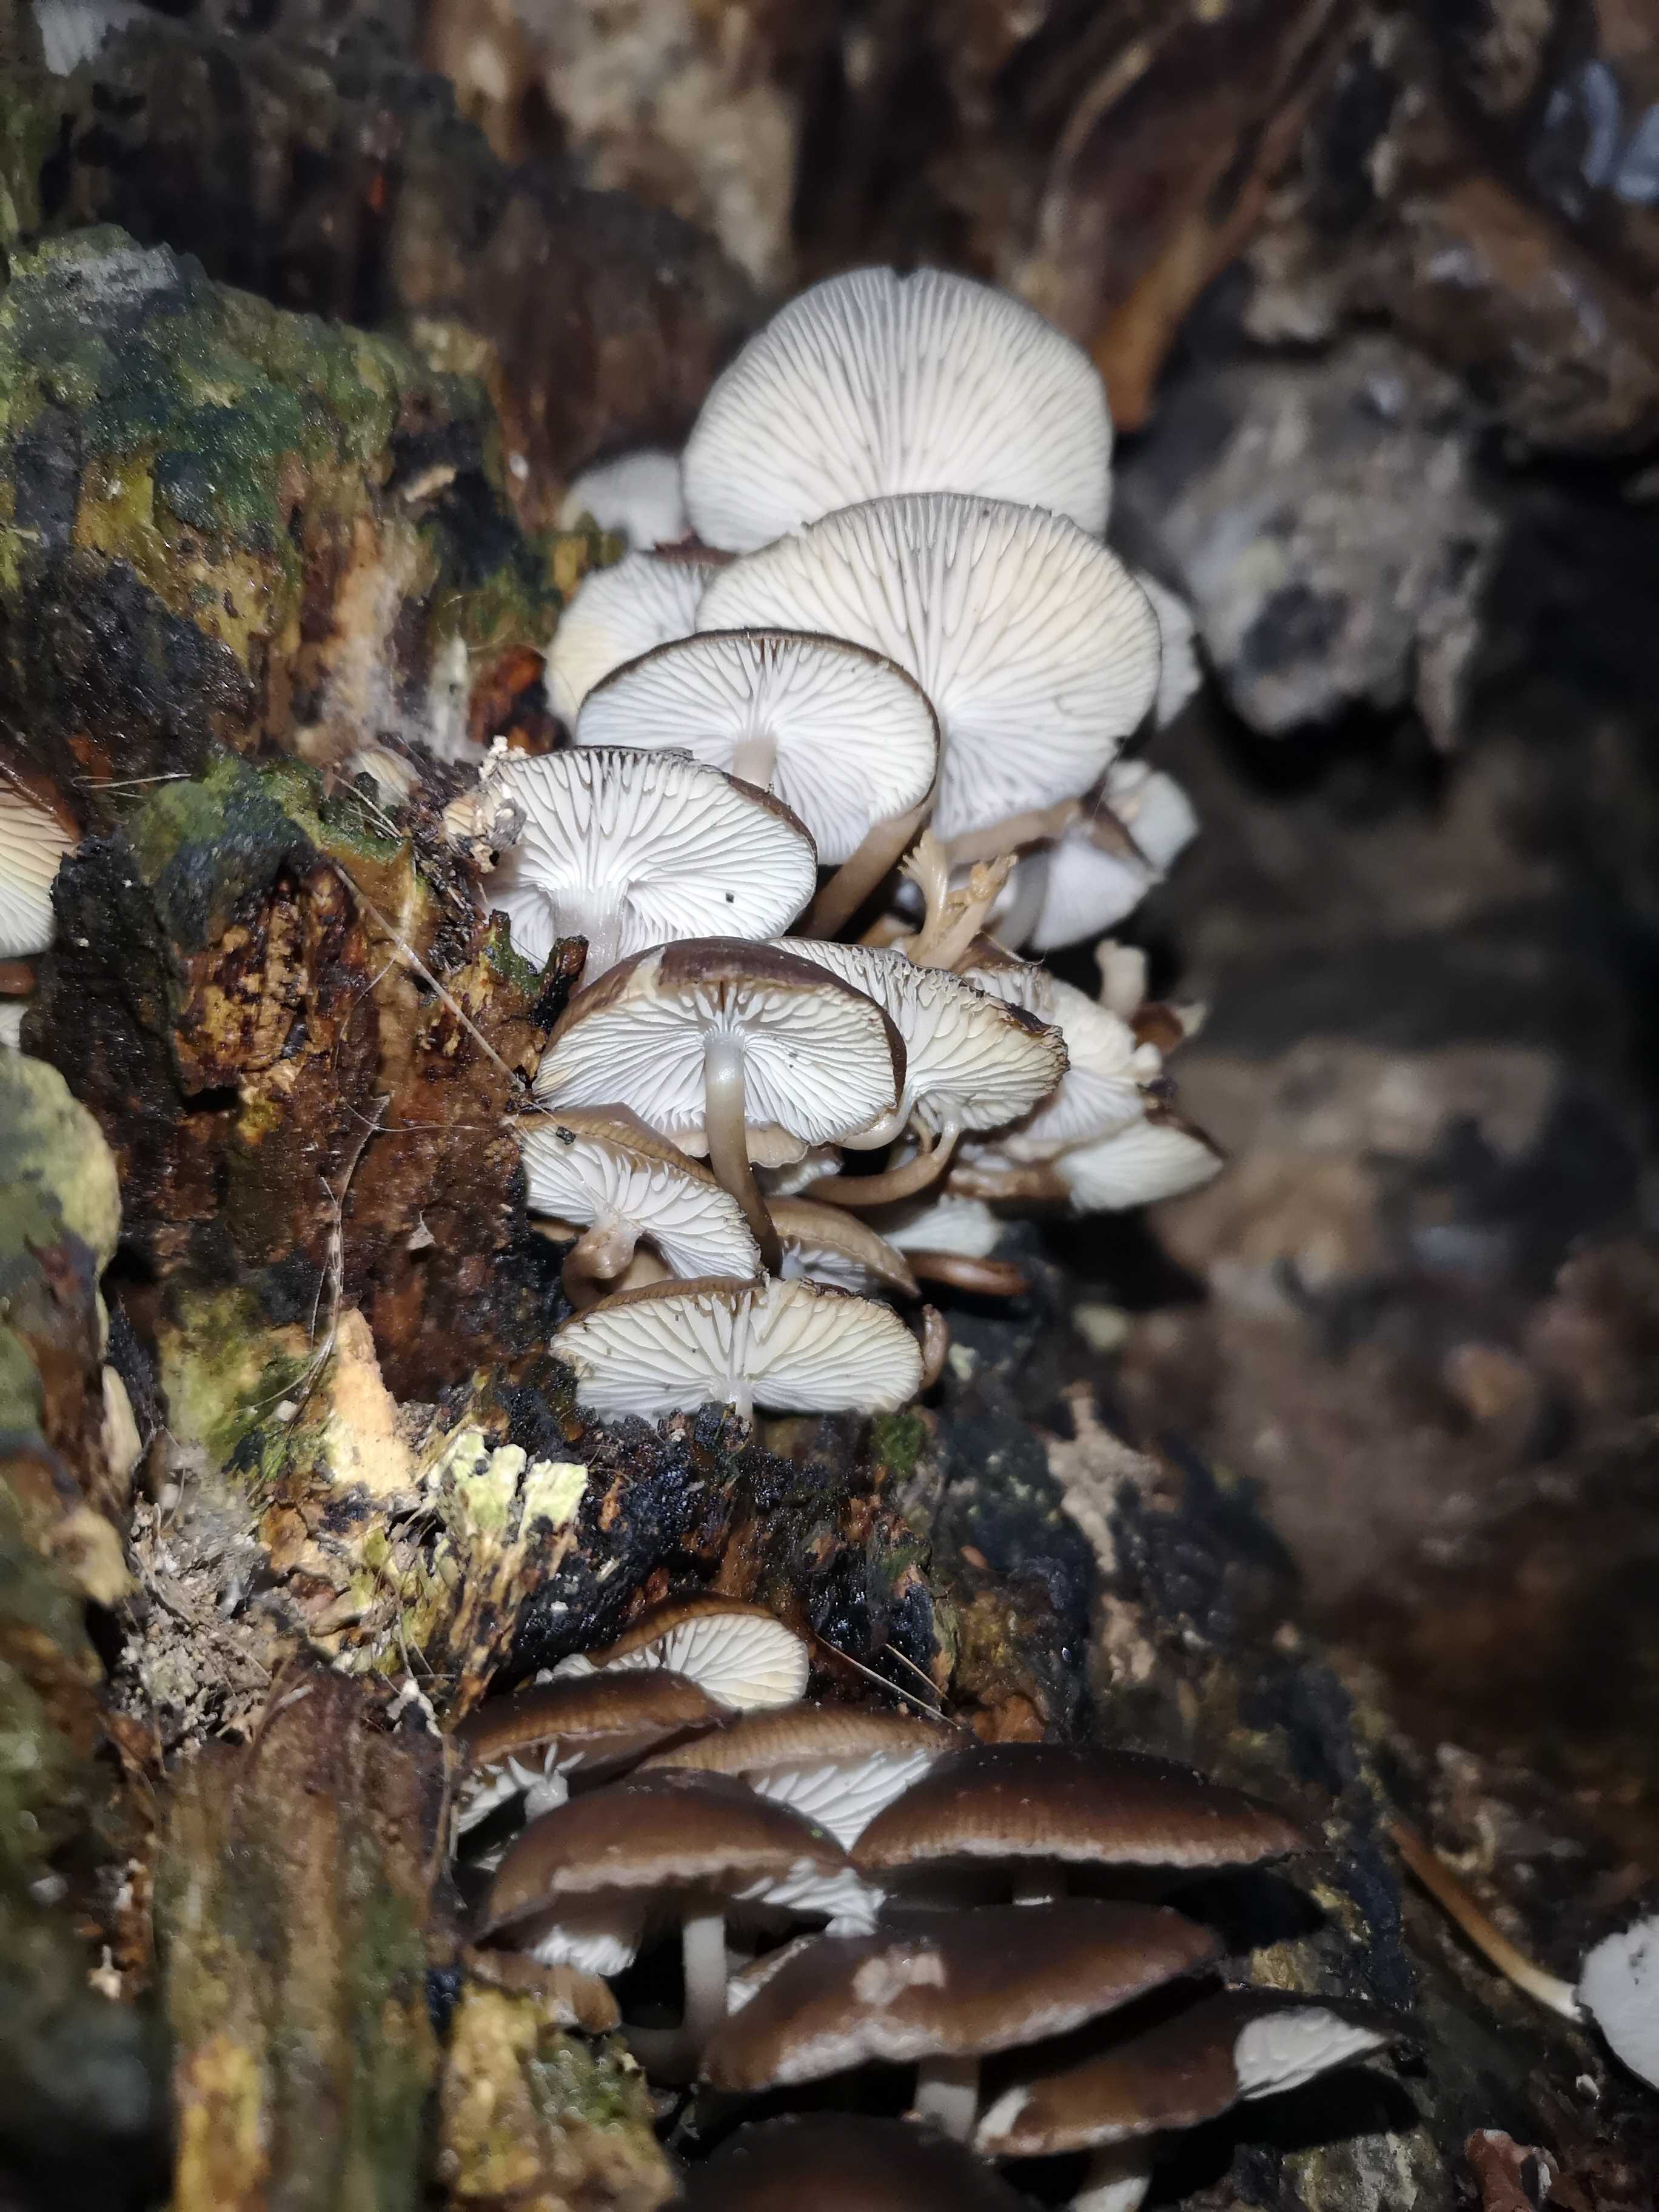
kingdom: Fungi
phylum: Basidiomycota
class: Agaricomycetes
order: Agaricales
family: Mycenaceae
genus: Mycena
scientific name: Mycena tintinnabulum
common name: vinter-huesvamp
